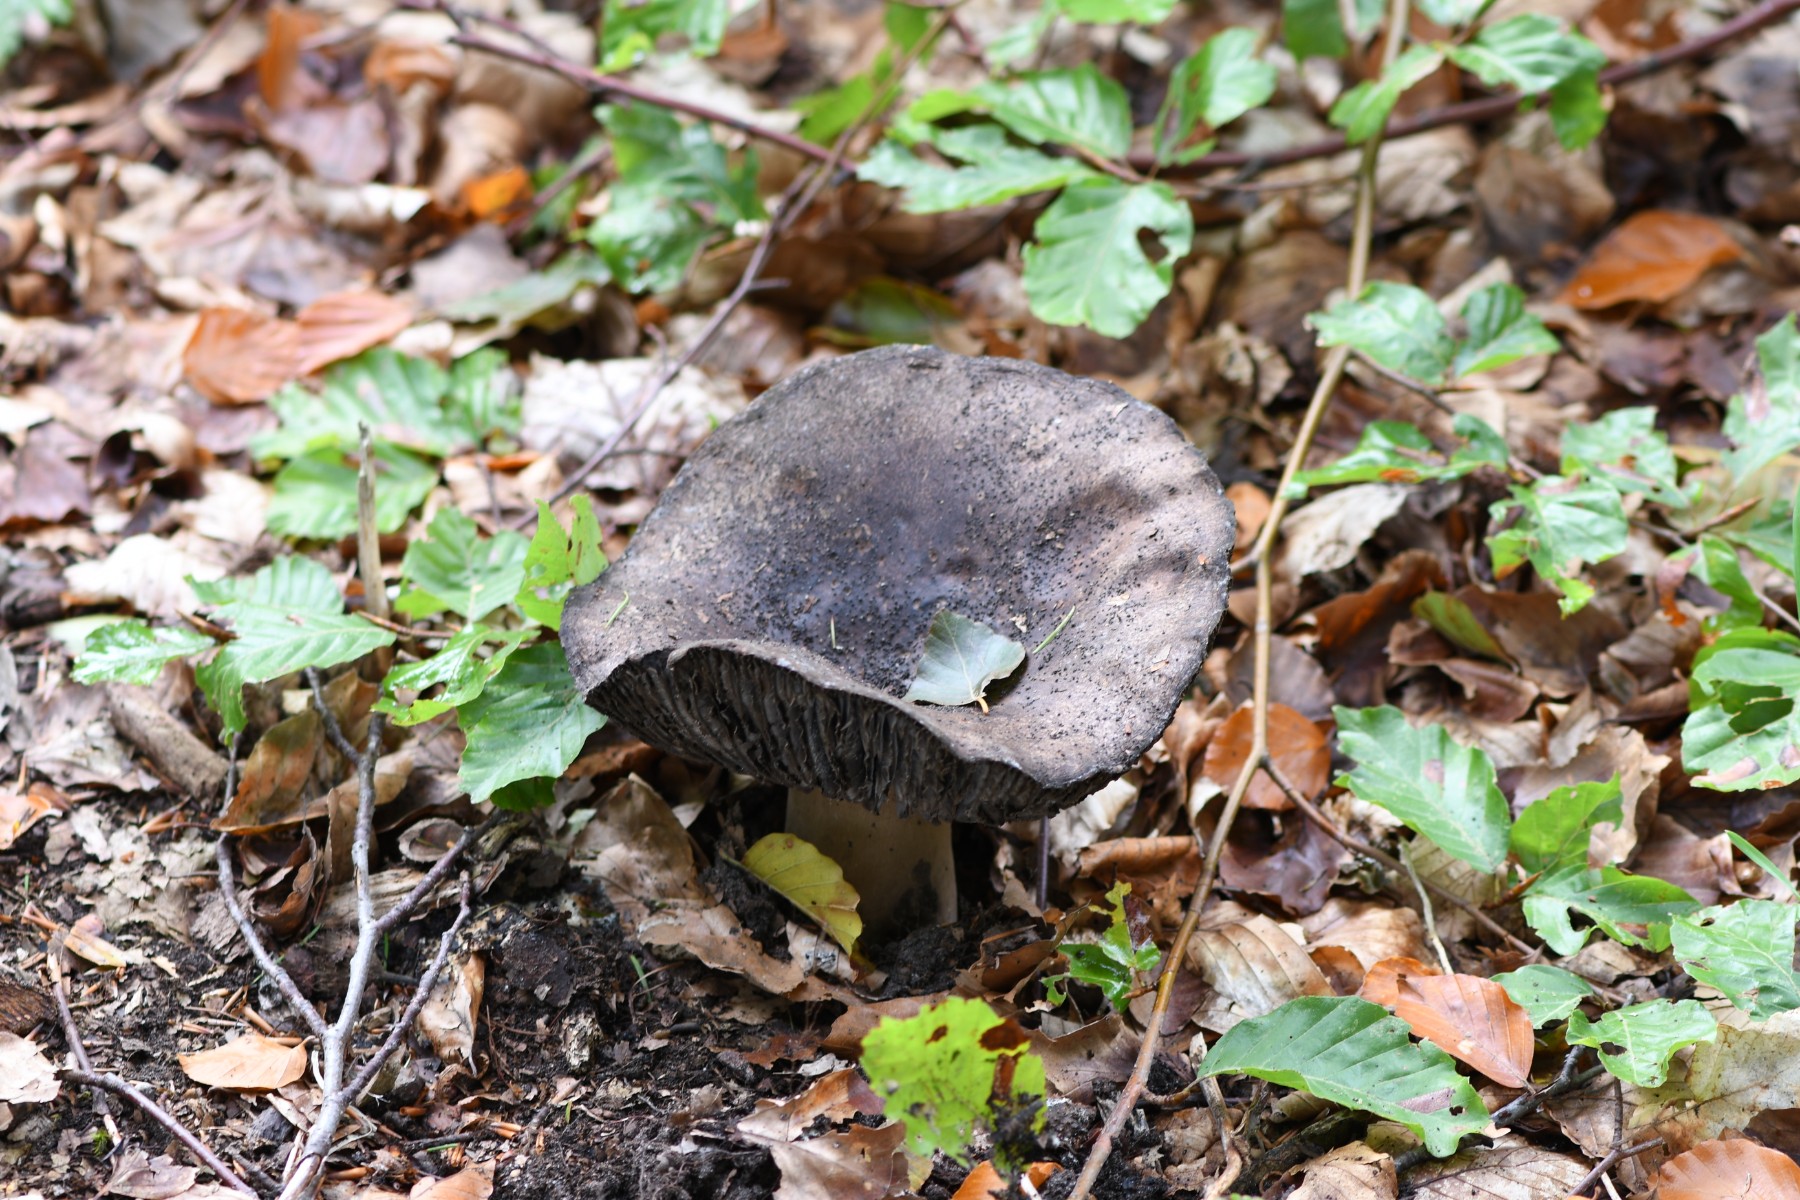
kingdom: Fungi
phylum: Basidiomycota
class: Agaricomycetes
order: Russulales
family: Russulaceae
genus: Russula
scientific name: Russula adusta
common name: sværtende skørhat
